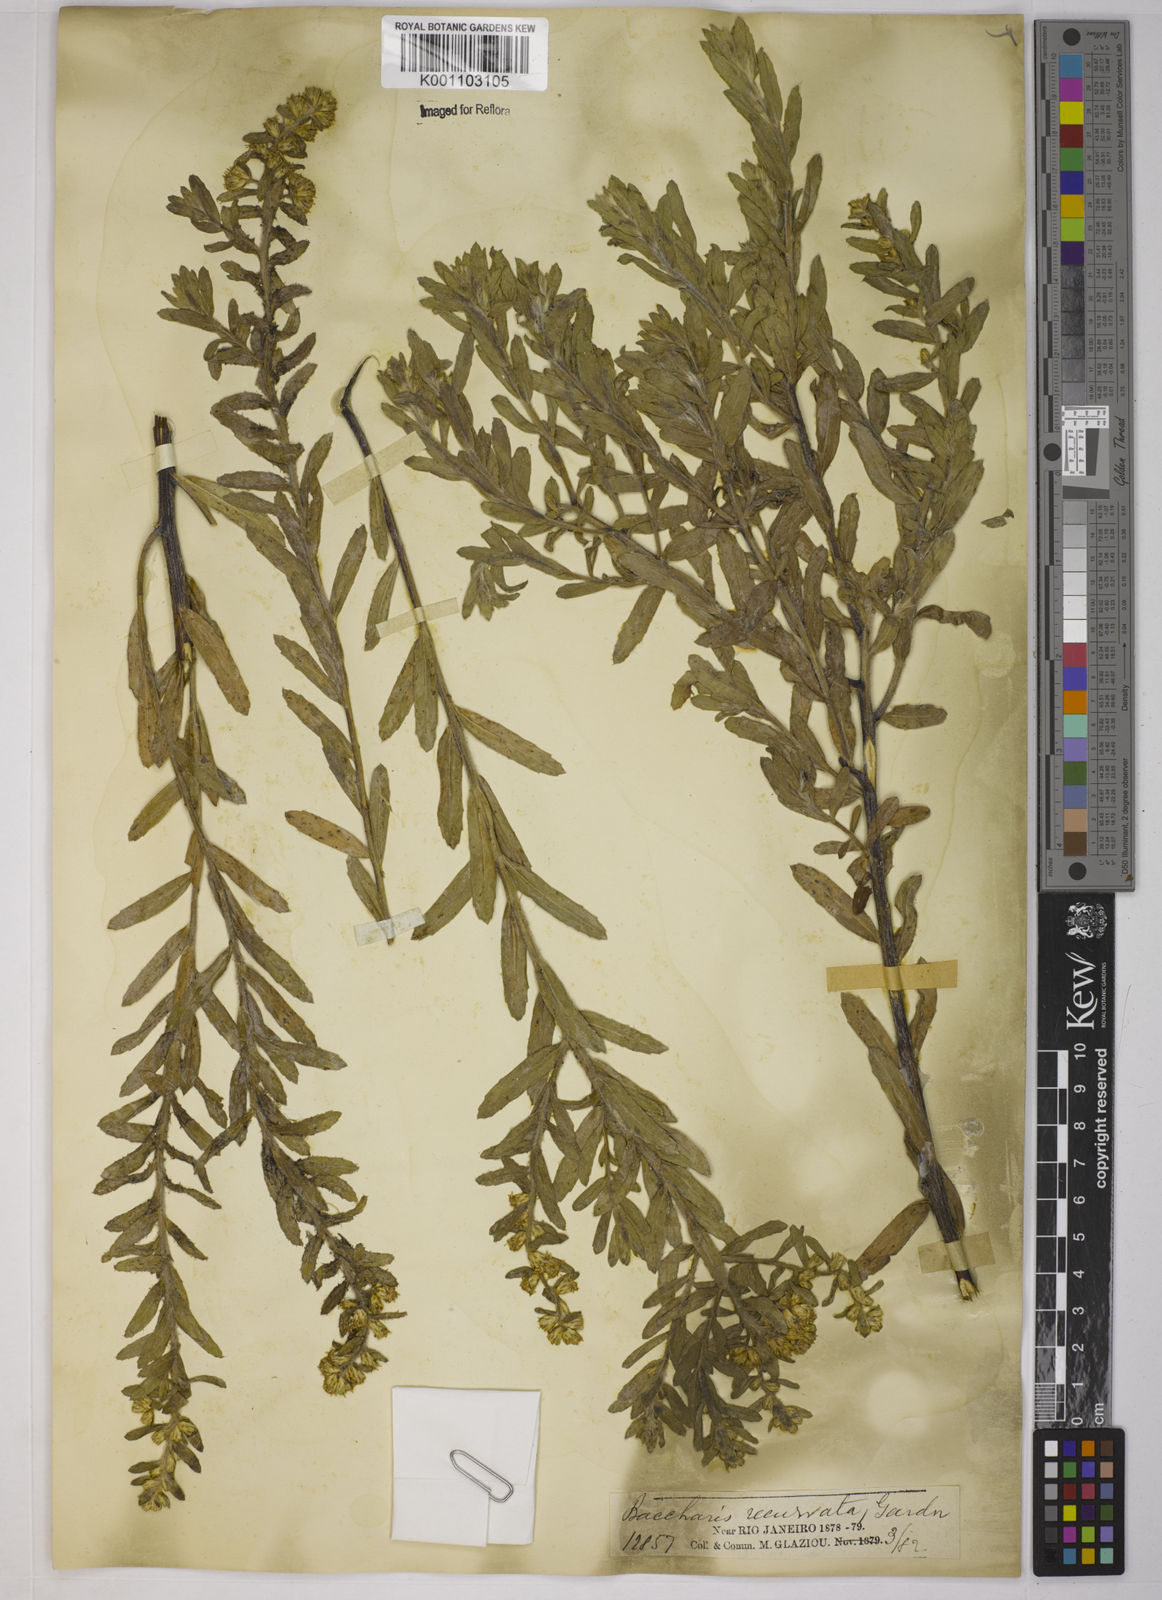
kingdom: Plantae
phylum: Tracheophyta
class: Magnoliopsida
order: Asterales
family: Asteraceae
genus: Baccharis
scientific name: Baccharis caprariifolia
